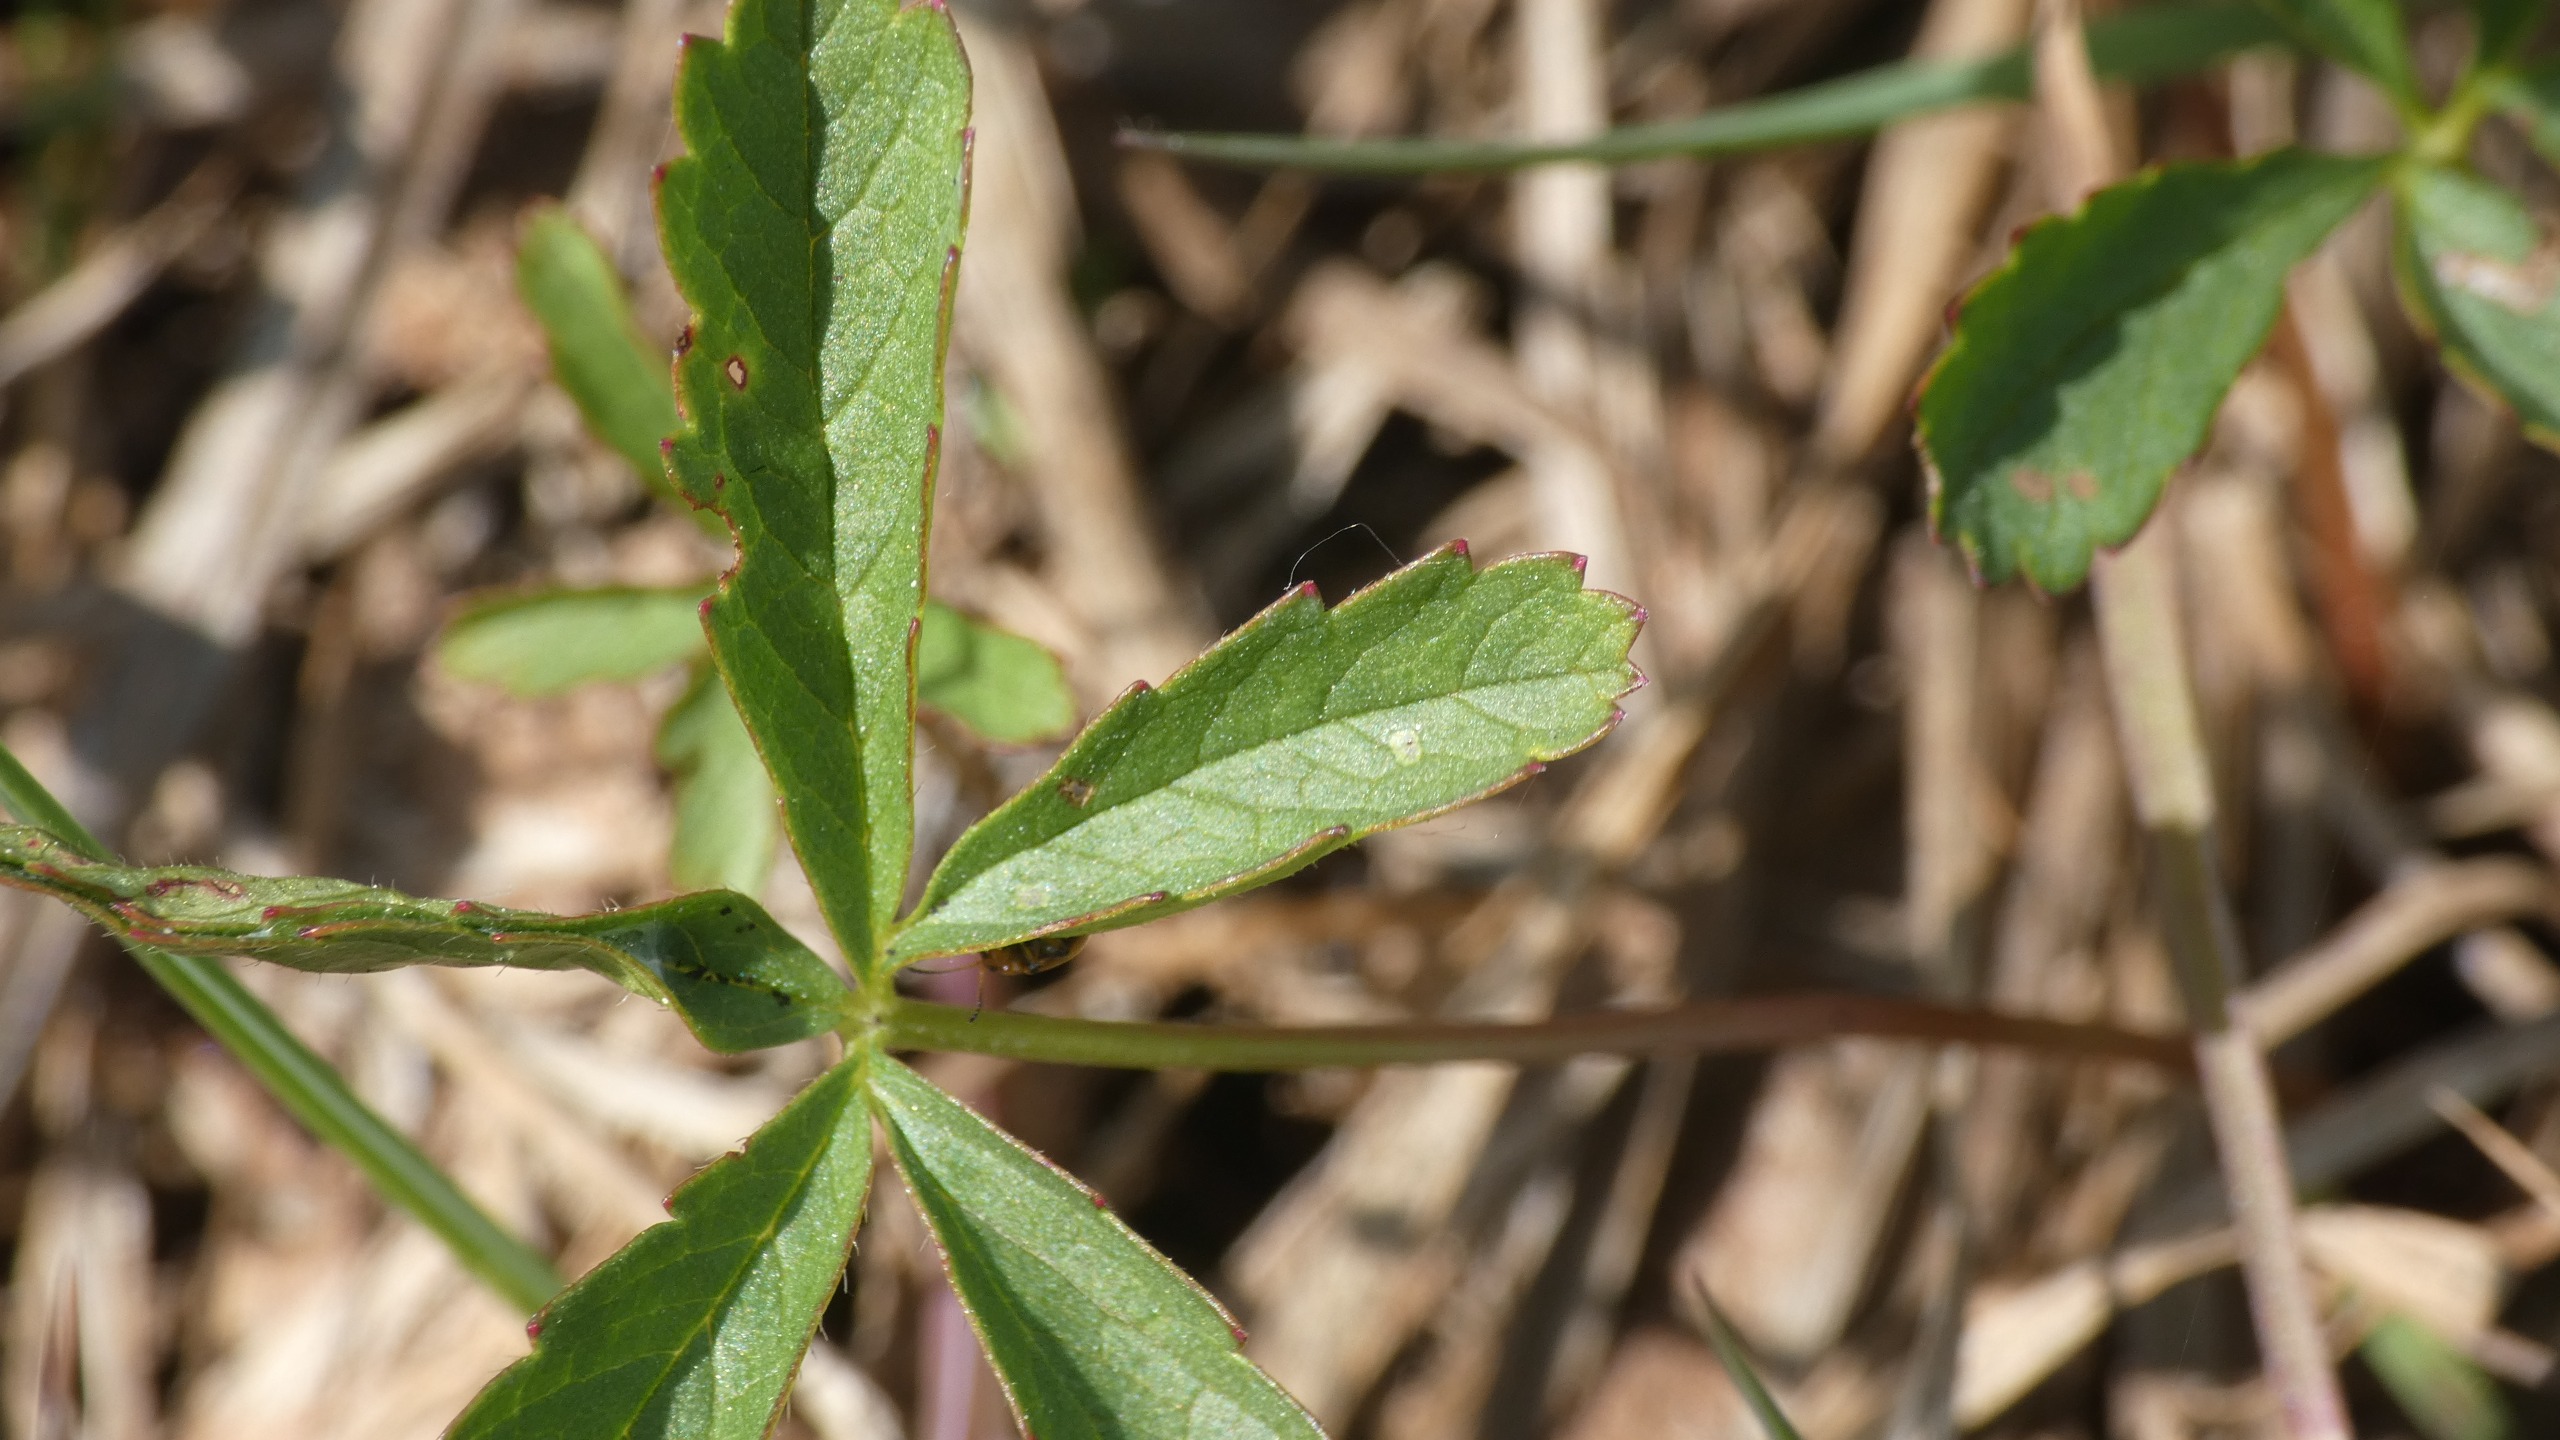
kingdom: Plantae
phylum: Tracheophyta
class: Magnoliopsida
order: Rosales
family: Rosaceae
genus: Comarum
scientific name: Comarum palustre
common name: Kragefod
